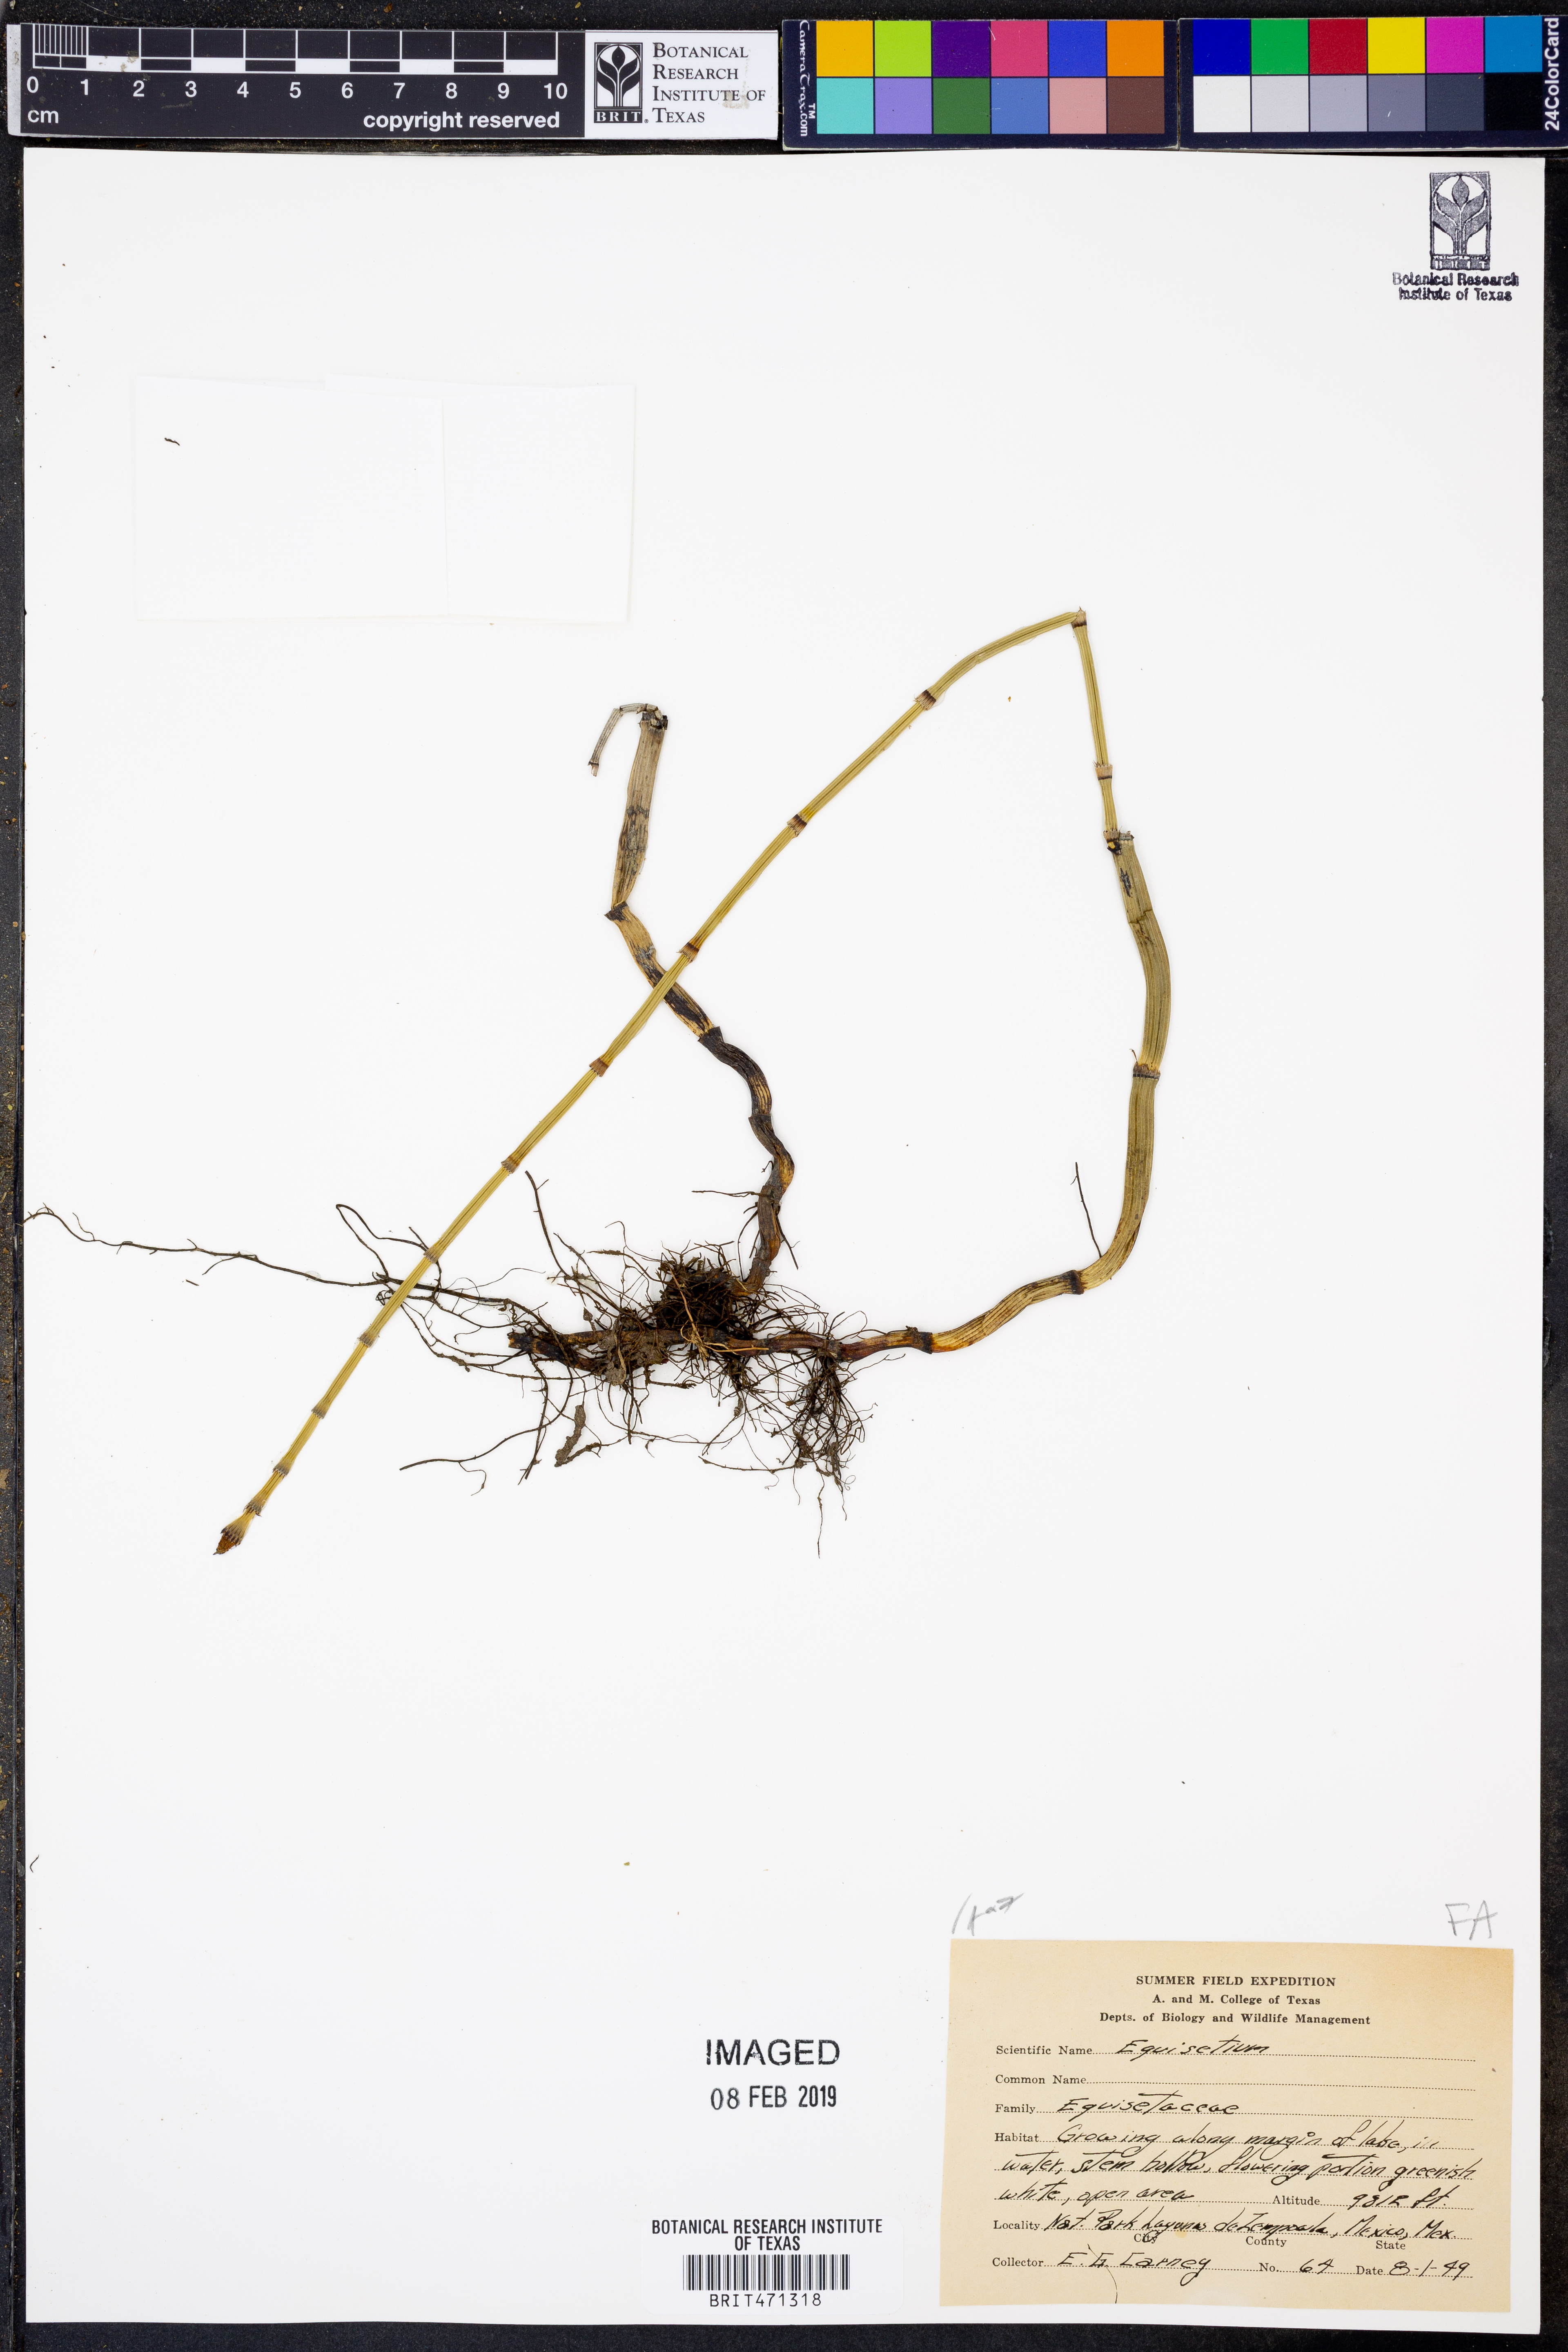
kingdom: Plantae
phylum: Tracheophyta
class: Polypodiopsida
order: Equisetales
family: Equisetaceae
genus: Equisetum
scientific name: Equisetum
